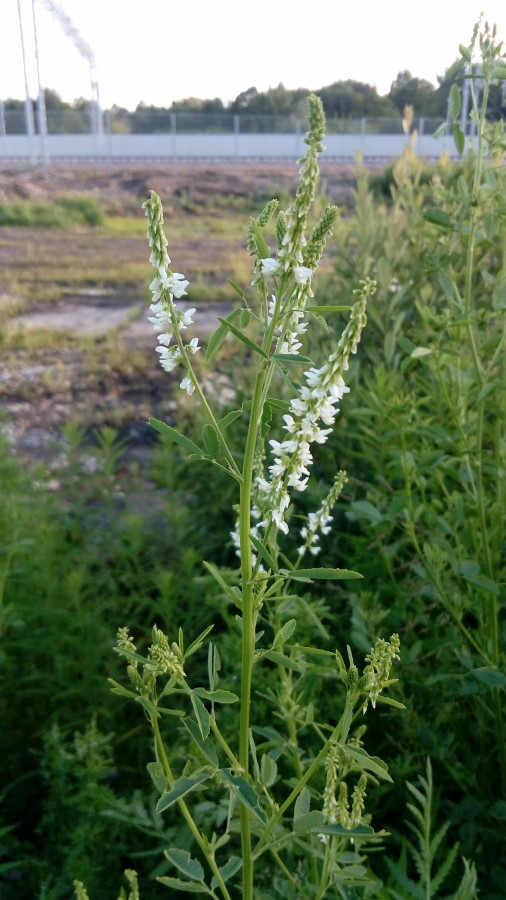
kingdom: Plantae
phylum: Tracheophyta
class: Magnoliopsida
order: Fabales
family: Fabaceae
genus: Melilotus
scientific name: Melilotus albus
